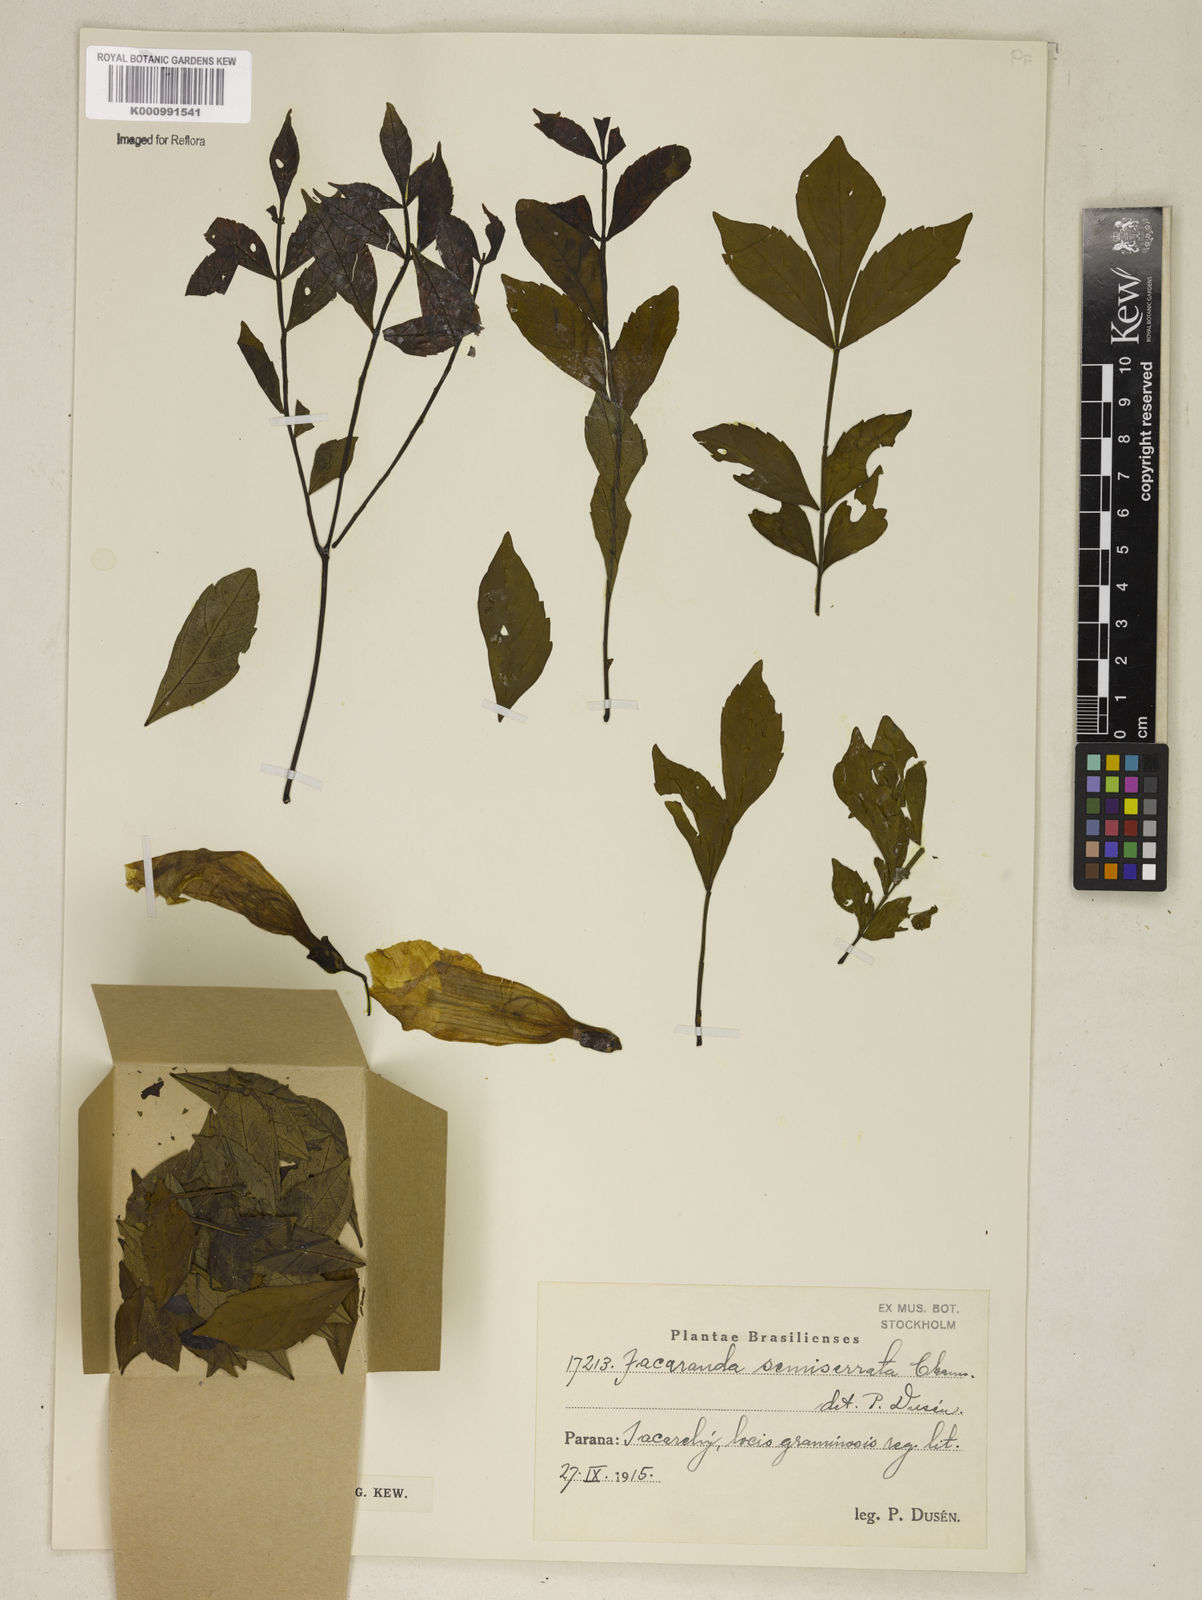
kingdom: Plantae
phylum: Tracheophyta
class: Magnoliopsida
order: Lamiales
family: Bignoniaceae
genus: Jacaranda
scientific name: Jacaranda puberula
